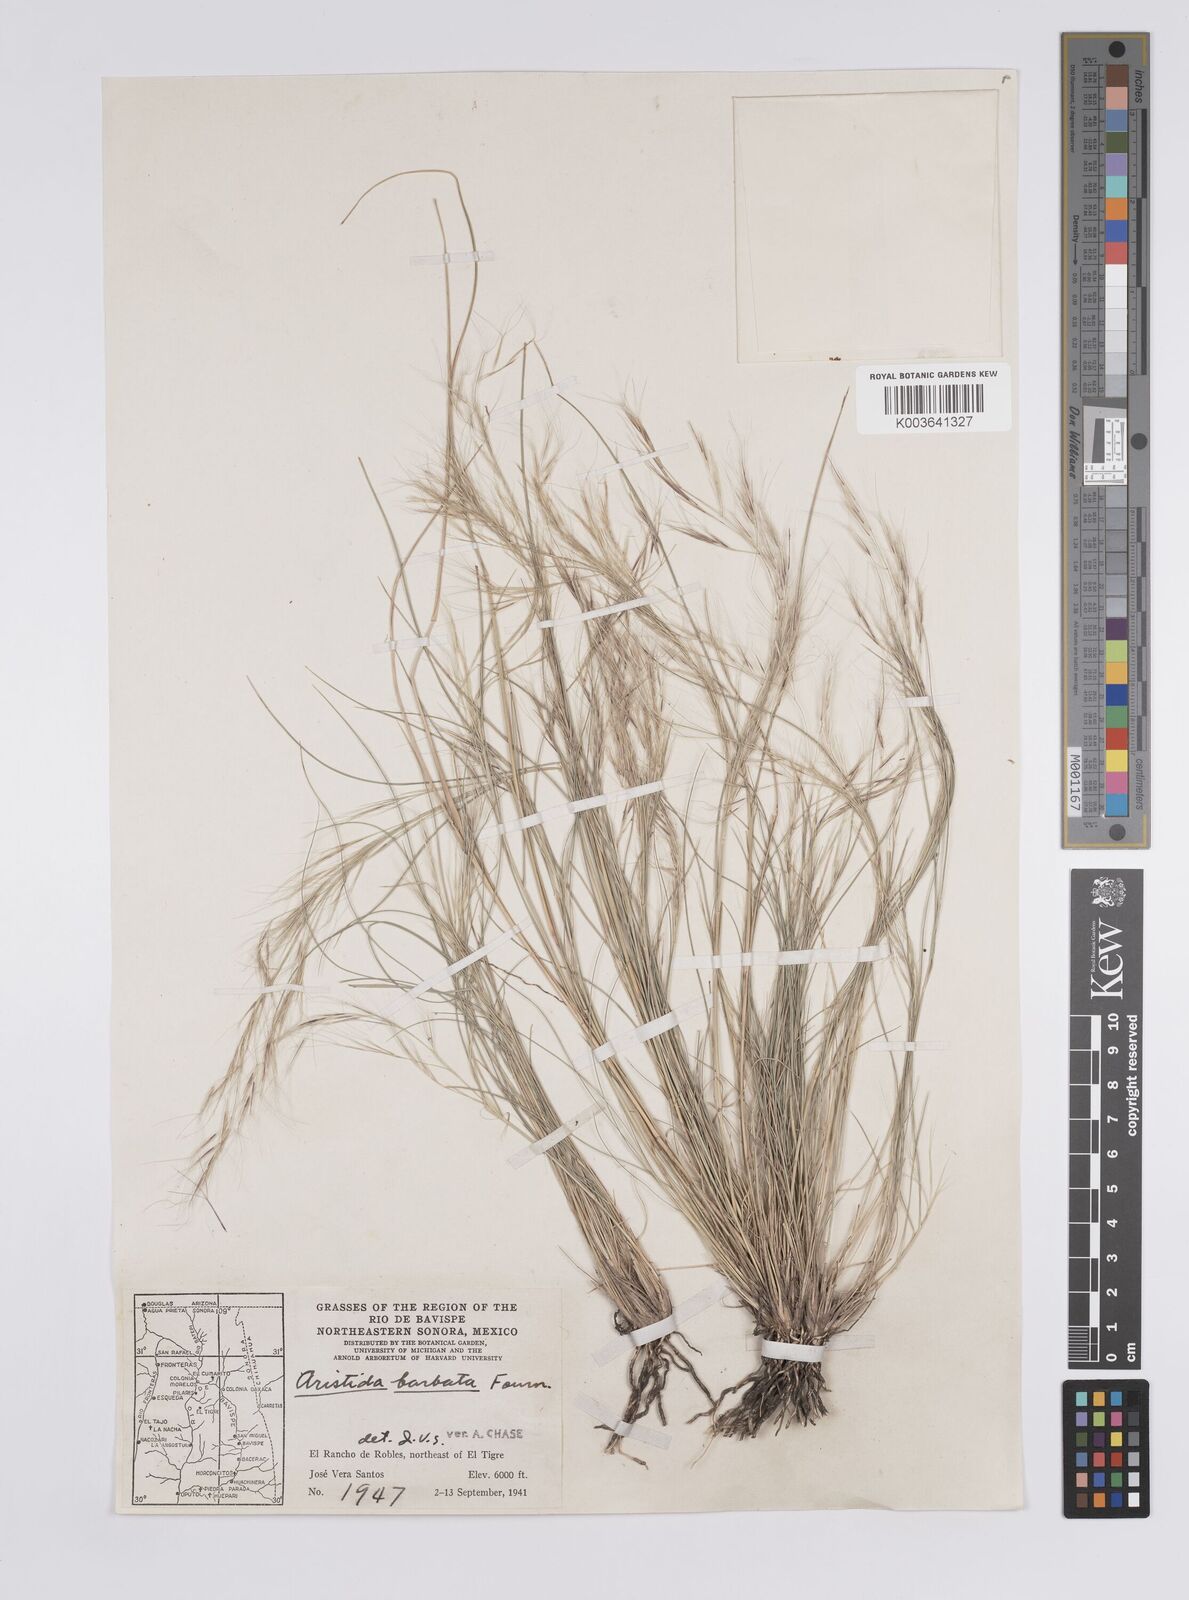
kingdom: Plantae
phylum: Tracheophyta
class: Liliopsida
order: Poales
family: Poaceae
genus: Aristida
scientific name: Aristida havardii
